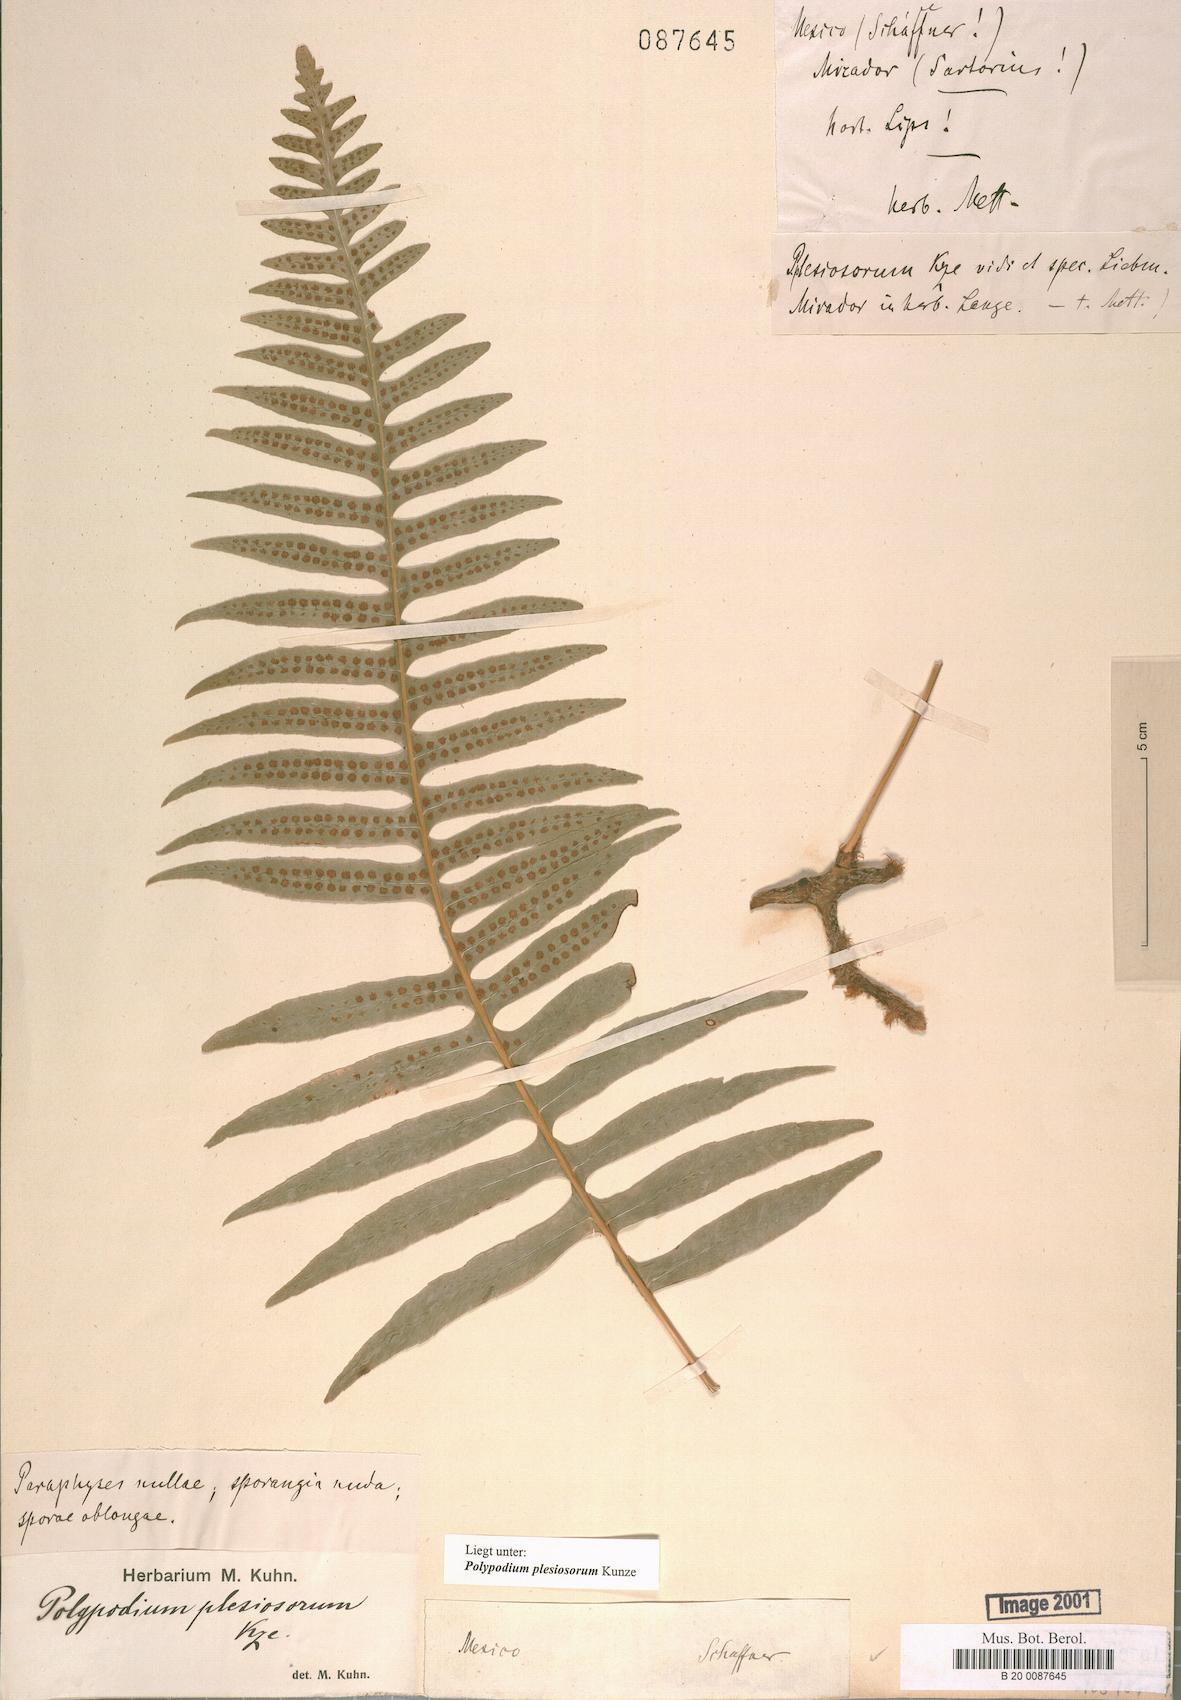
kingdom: Plantae
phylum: Tracheophyta
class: Polypodiopsida
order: Polypodiales
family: Polypodiaceae
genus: Polypodium
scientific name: Polypodium plesiosorum
